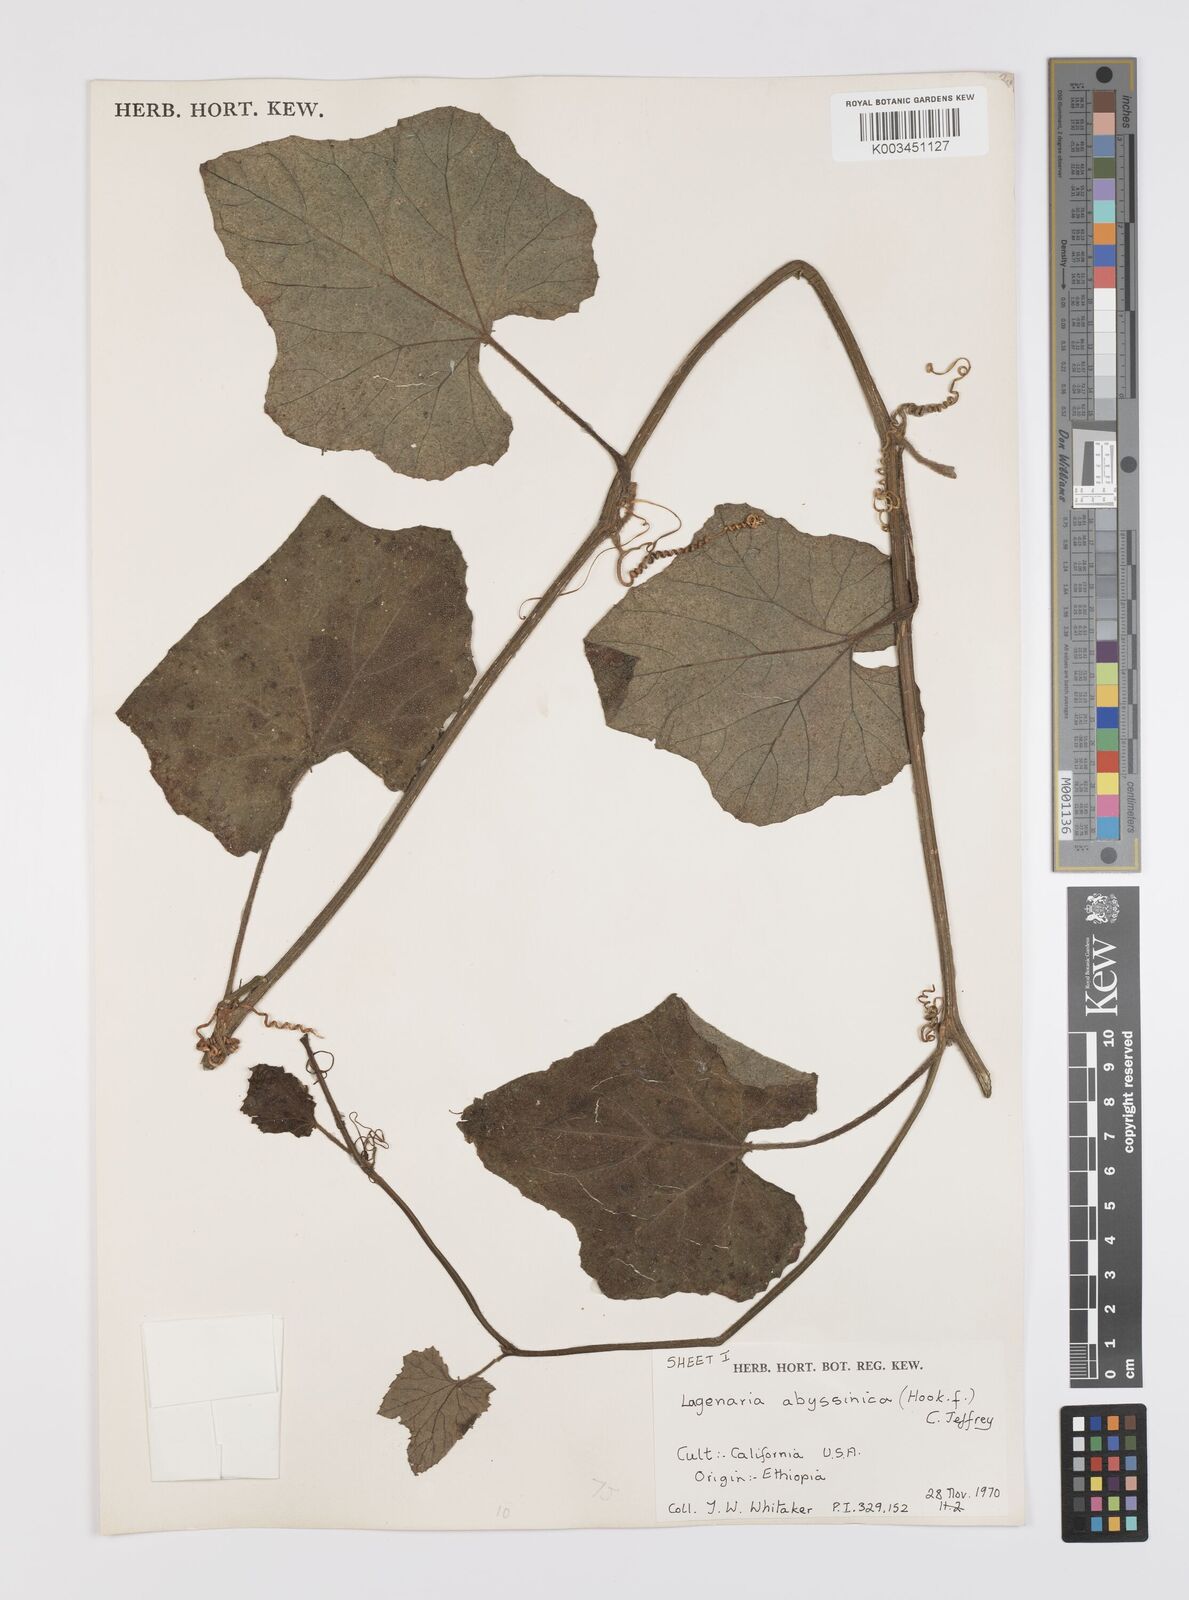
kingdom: Plantae
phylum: Tracheophyta
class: Magnoliopsida
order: Cucurbitales
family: Cucurbitaceae
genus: Lagenaria
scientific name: Lagenaria abyssinica
